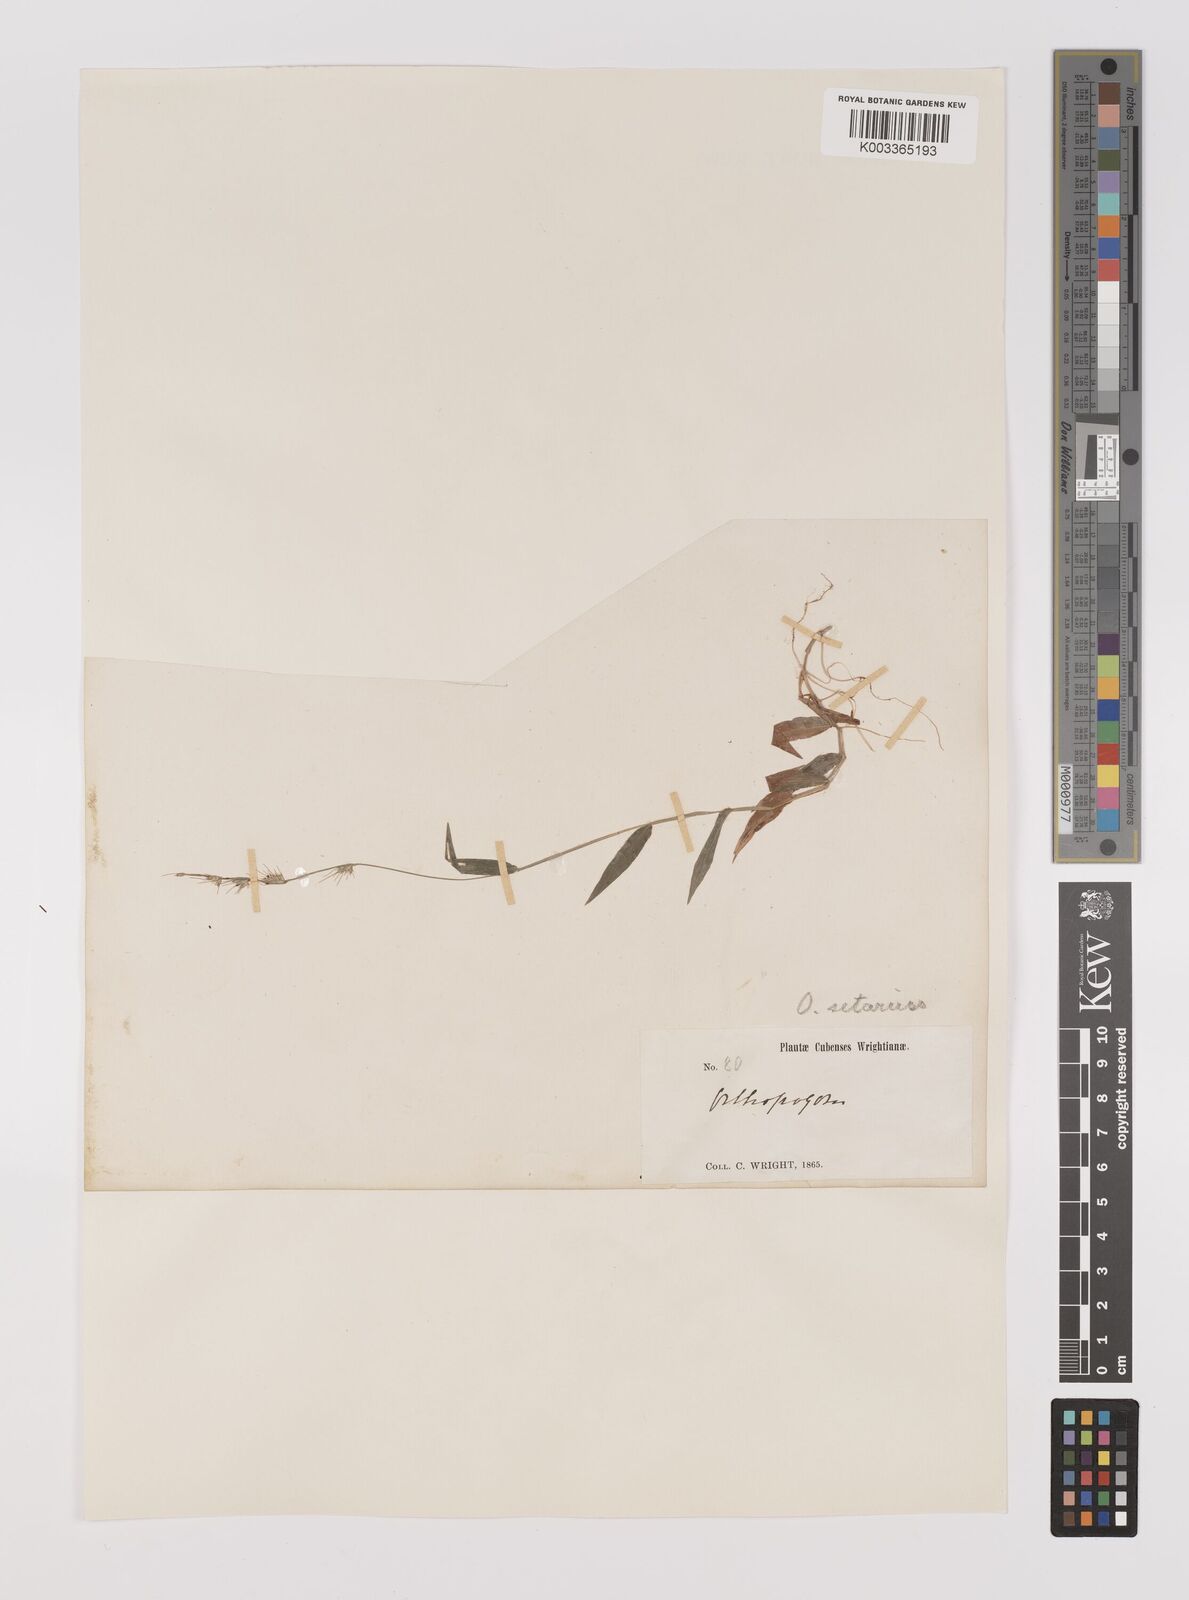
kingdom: Plantae
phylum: Tracheophyta
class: Liliopsida
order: Poales
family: Poaceae
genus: Oplismenus
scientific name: Oplismenus hirtellus
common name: Basketgrass
